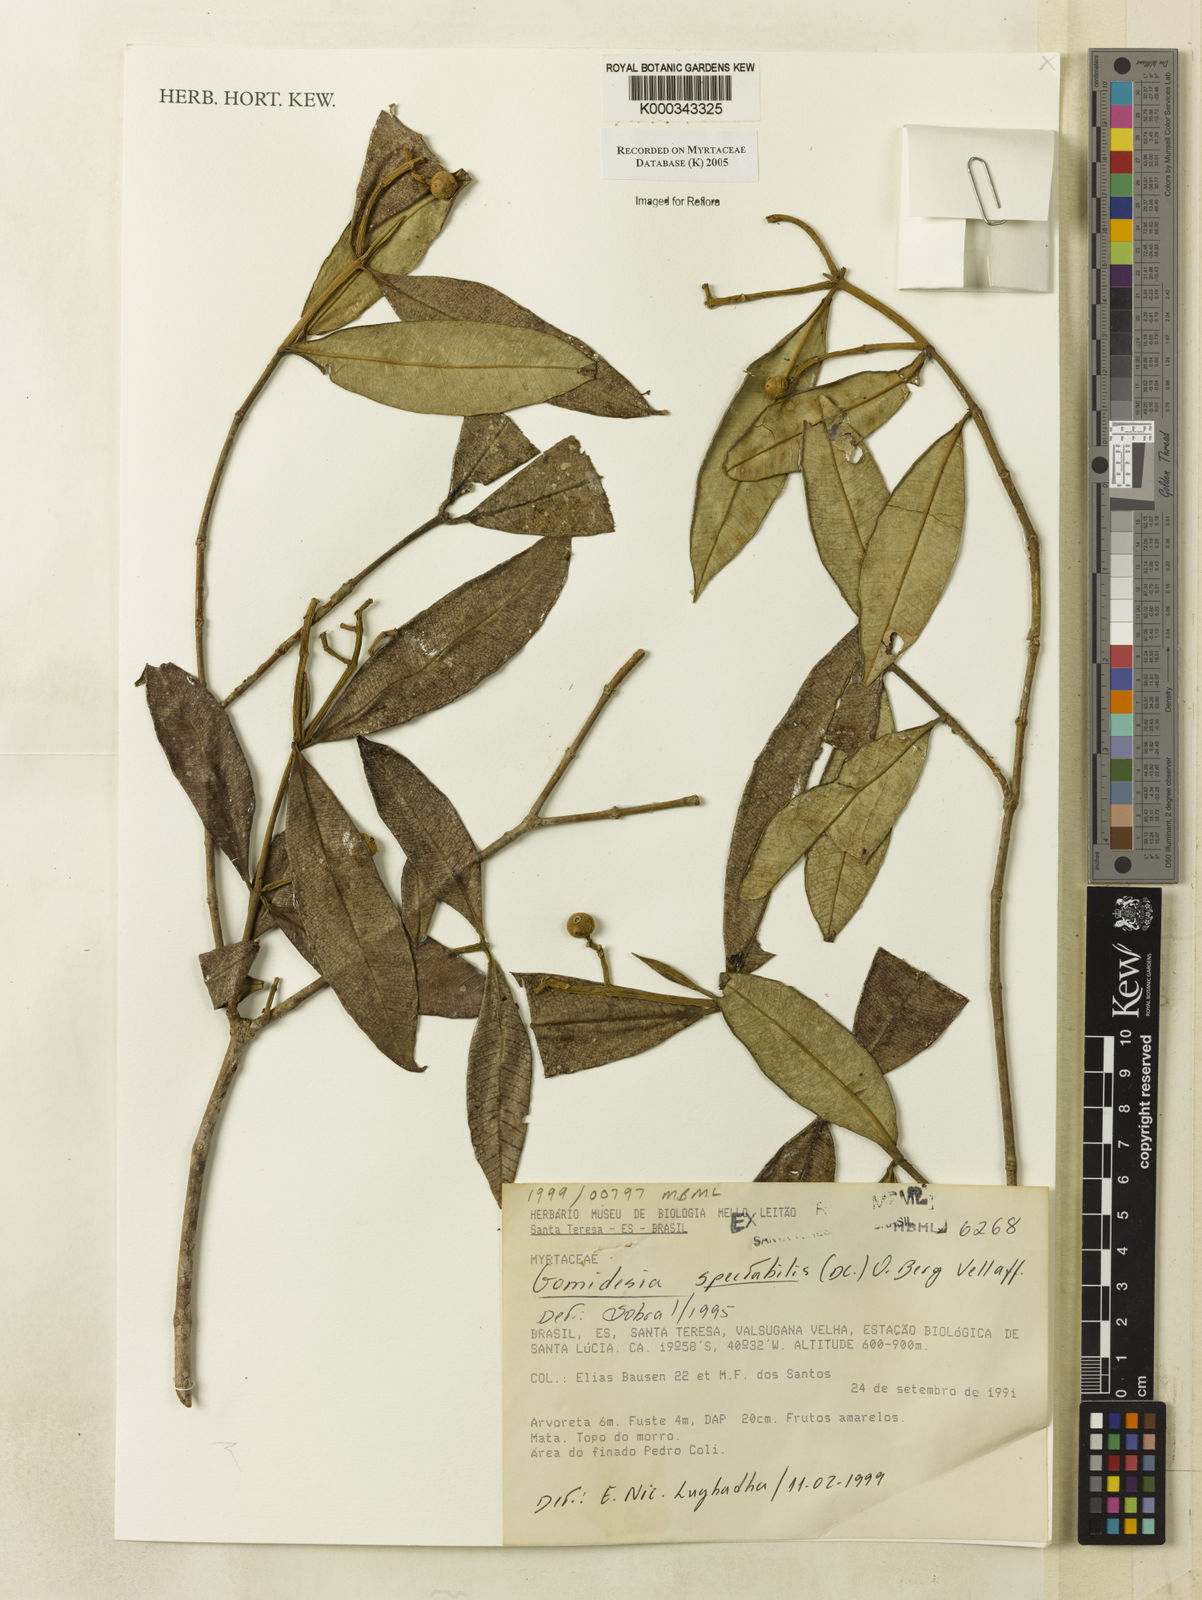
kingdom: Plantae
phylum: Tracheophyta
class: Magnoliopsida
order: Myrtales
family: Myrtaceae
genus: Myrcia
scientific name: Myrcia spectabilis
